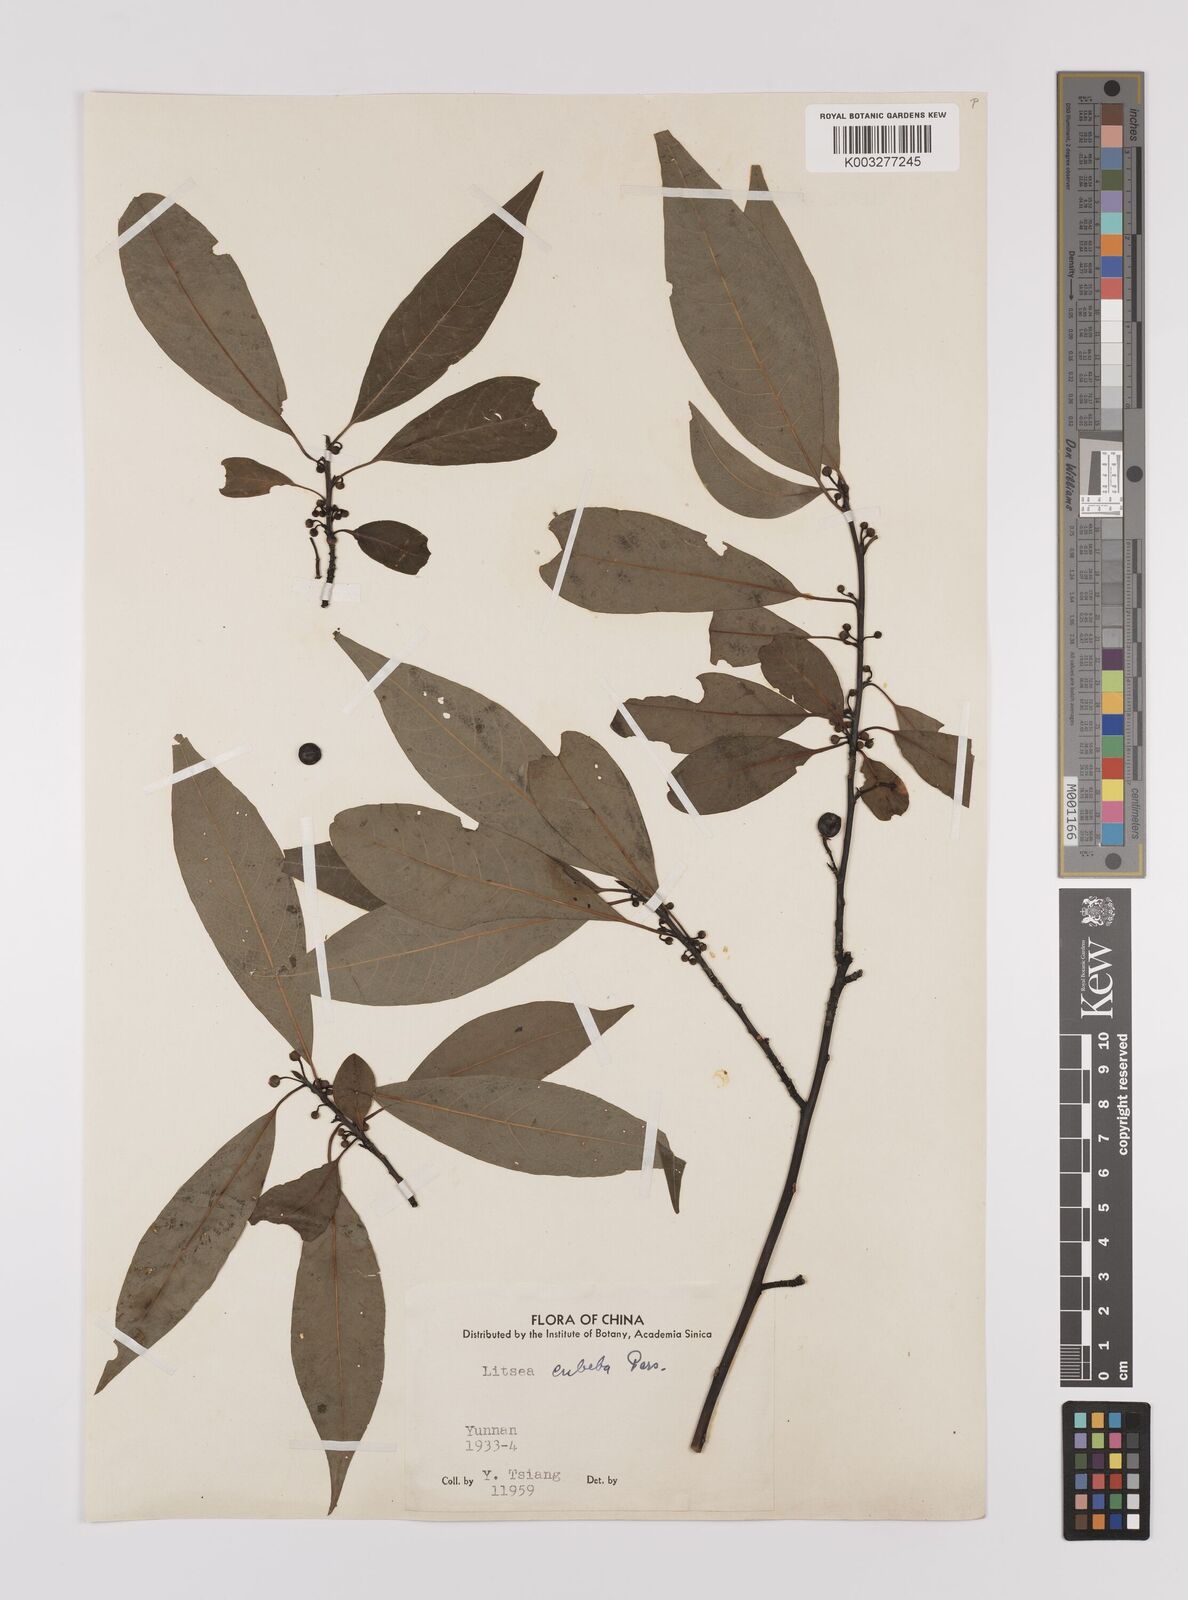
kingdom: Plantae
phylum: Tracheophyta
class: Magnoliopsida
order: Laurales
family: Lauraceae
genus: Litsea
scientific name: Litsea cubeba
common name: Mountain-pepper
